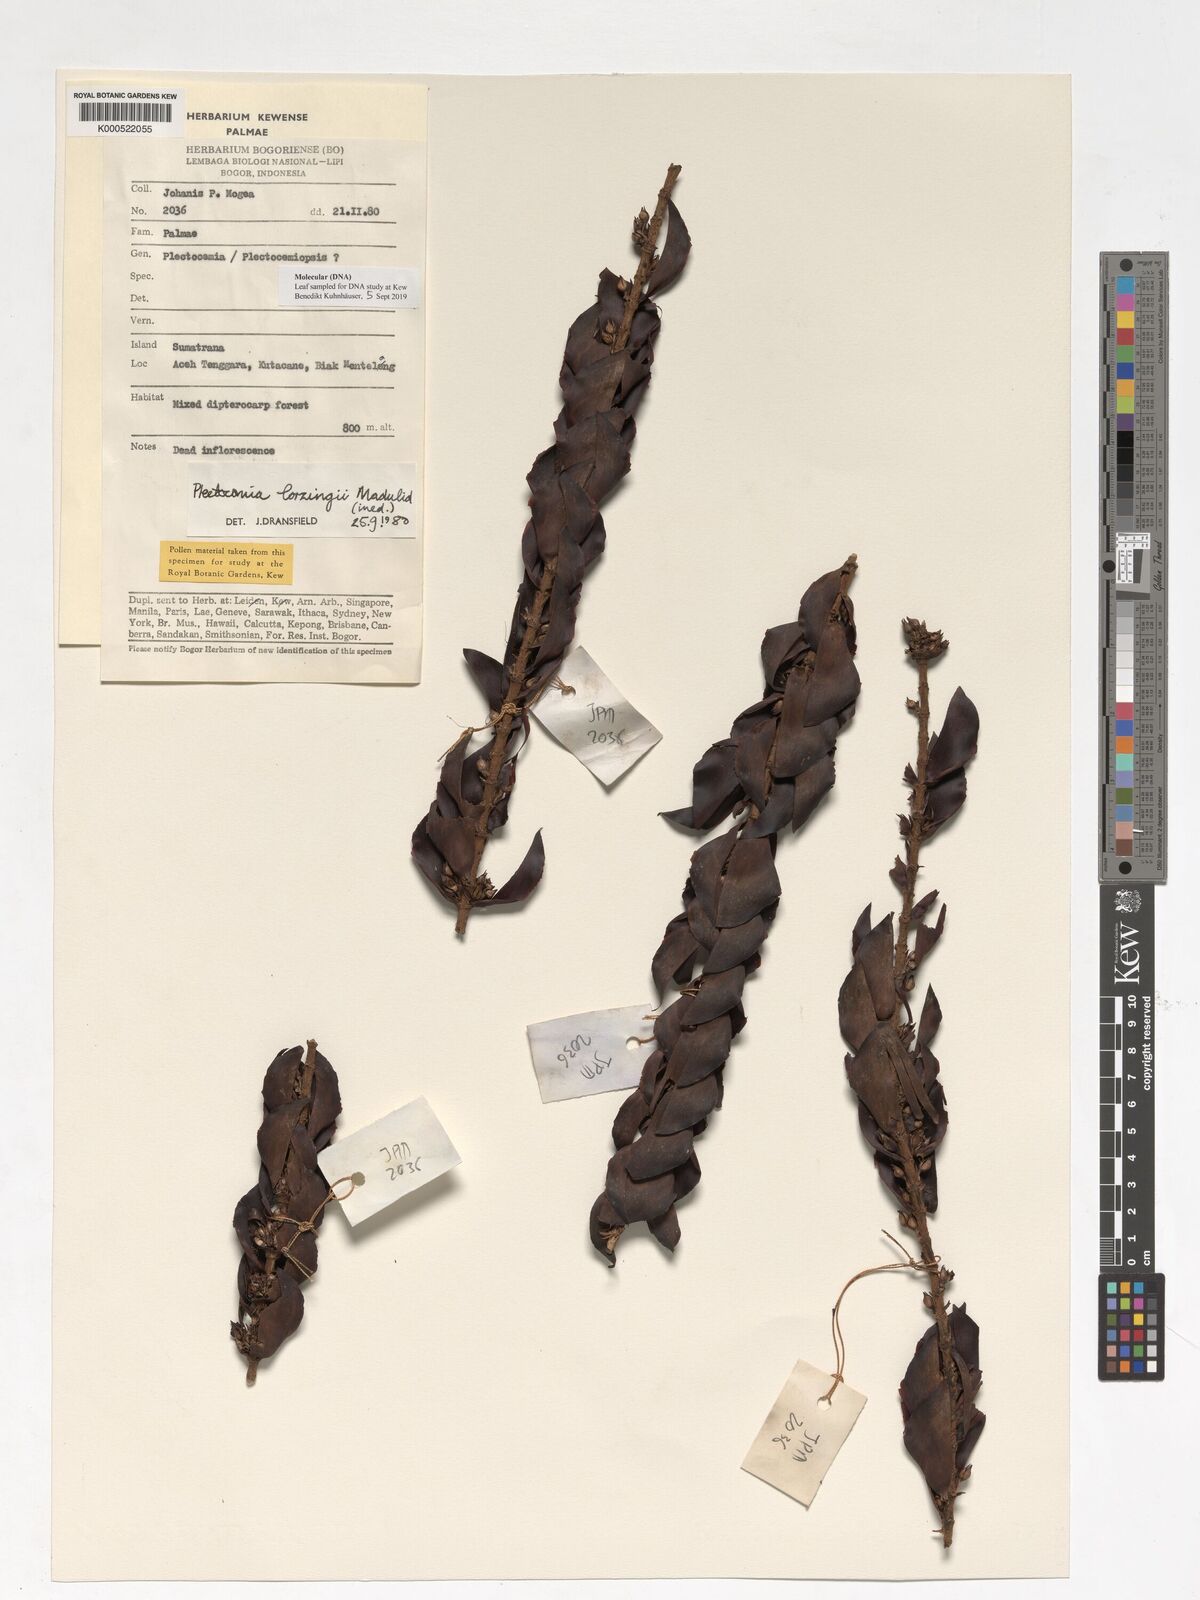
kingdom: Plantae
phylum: Tracheophyta
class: Liliopsida
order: Arecales
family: Arecaceae
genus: Plectocomia
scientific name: Plectocomia lorzingii
